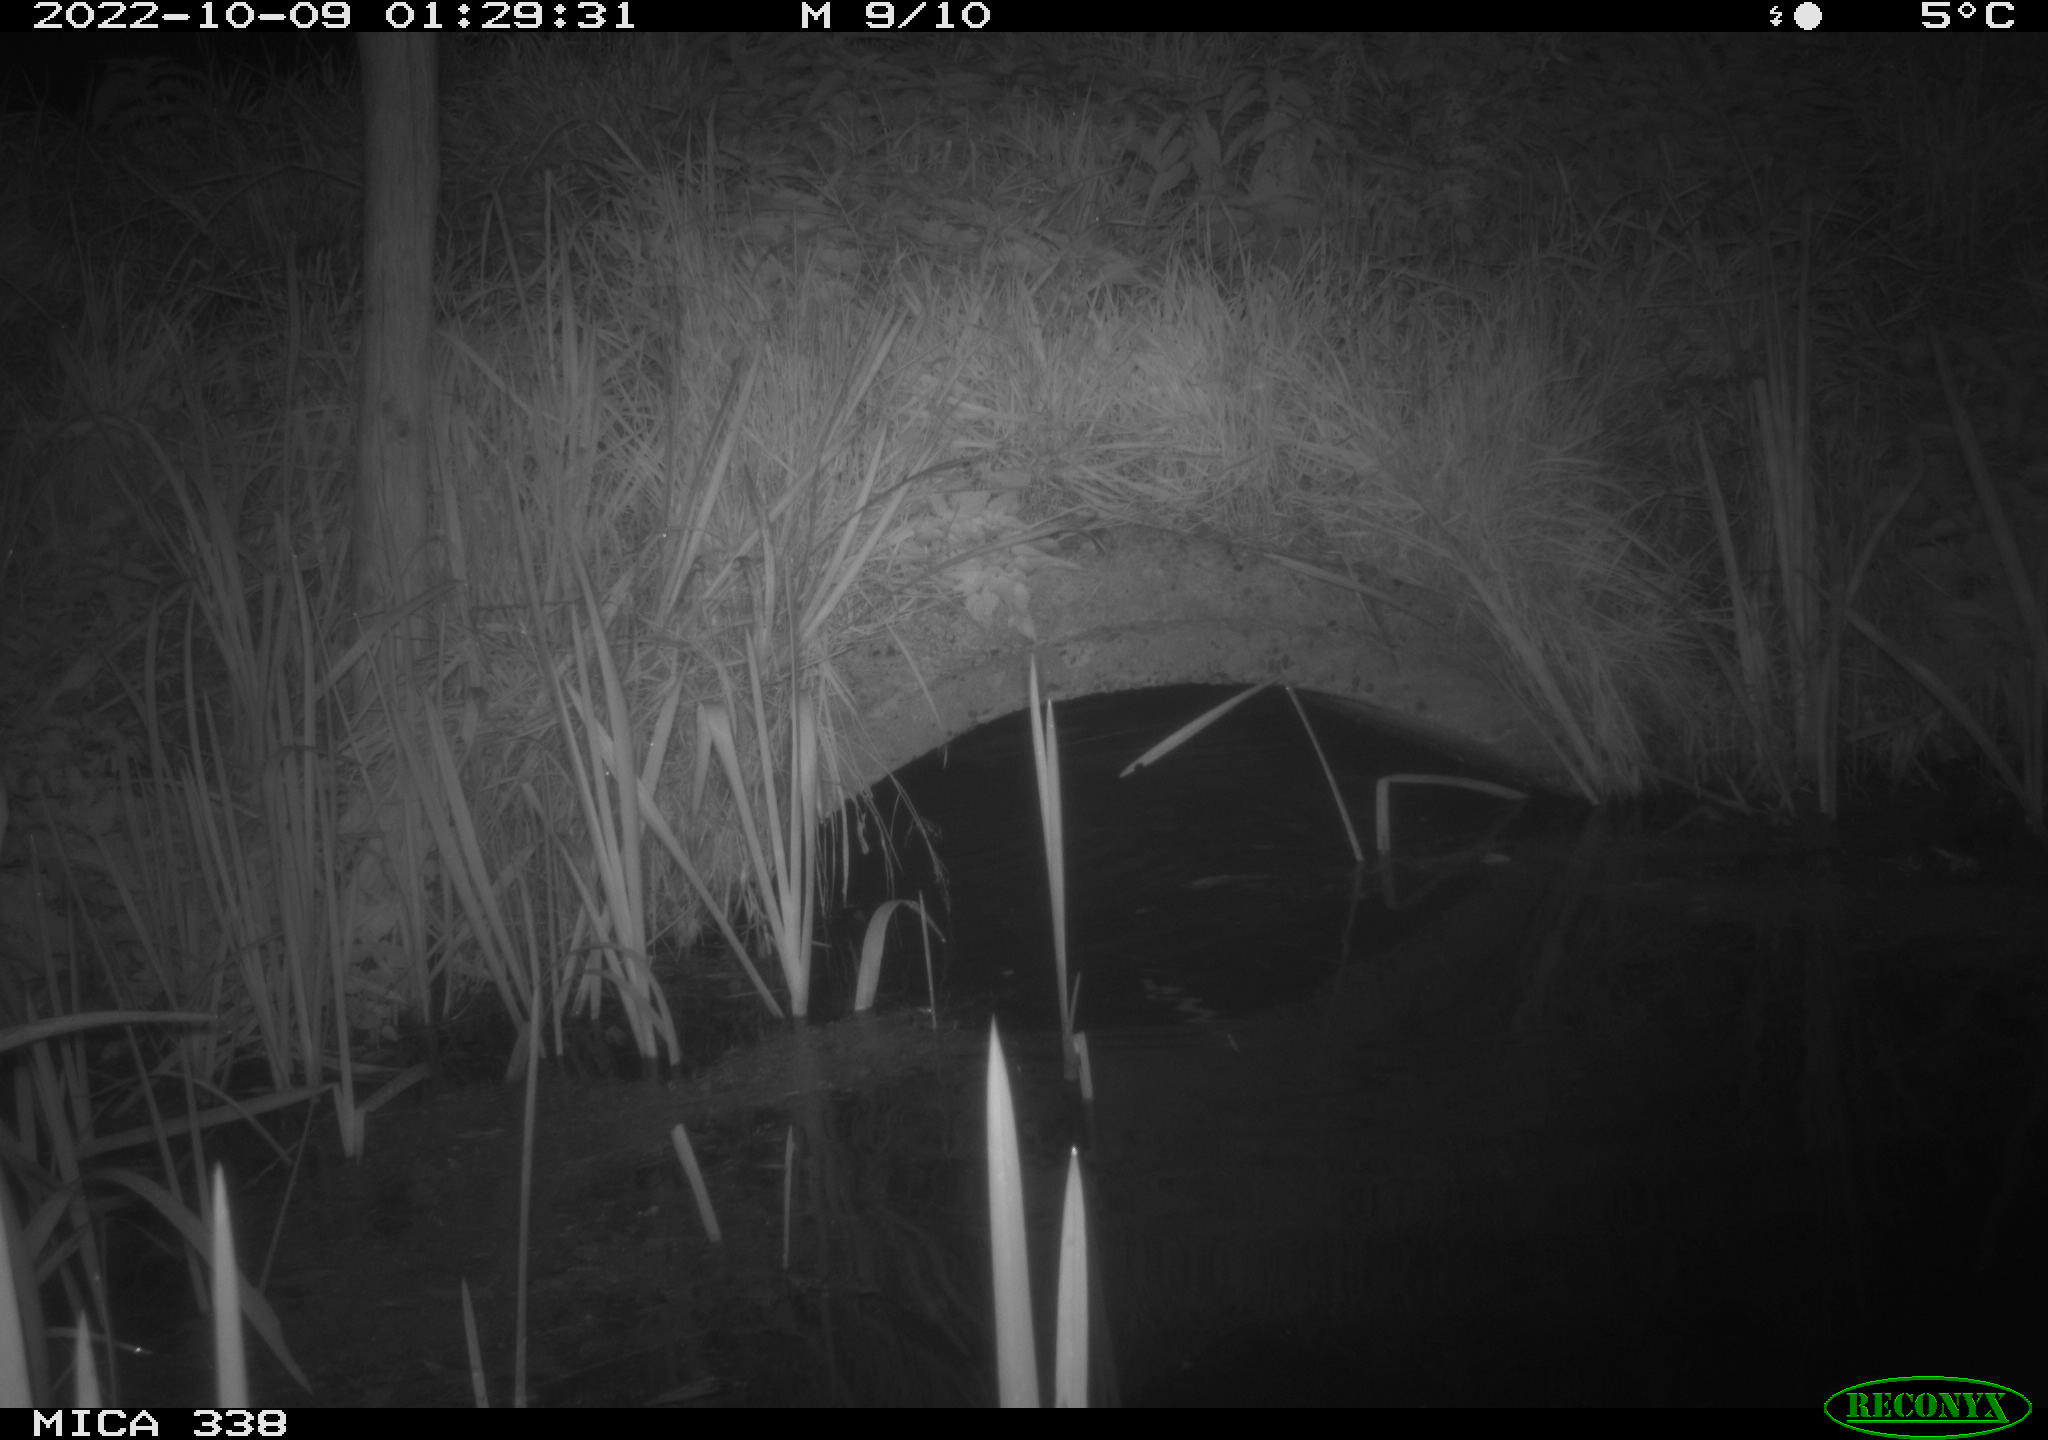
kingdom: Animalia
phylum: Chordata
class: Mammalia
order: Rodentia
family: Muridae
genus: Rattus
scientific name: Rattus norvegicus
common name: Brown rat
